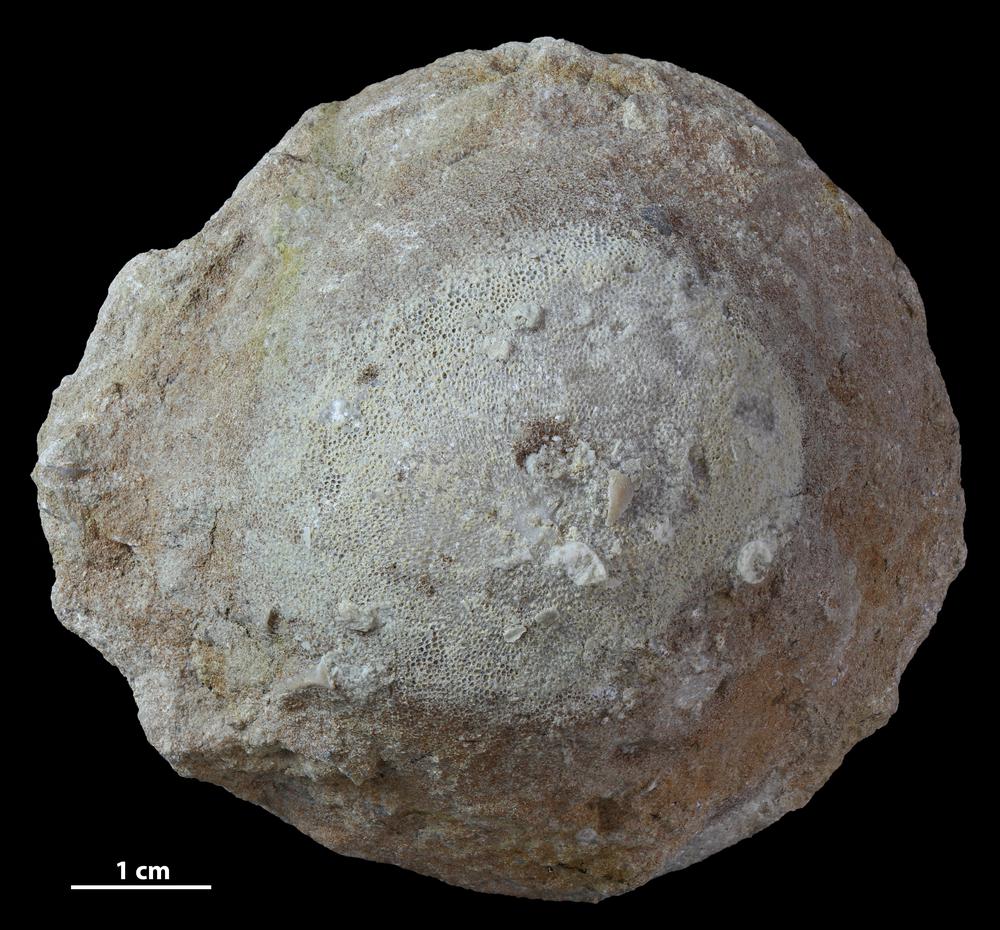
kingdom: Animalia
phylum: Bryozoa
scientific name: Bryozoa
